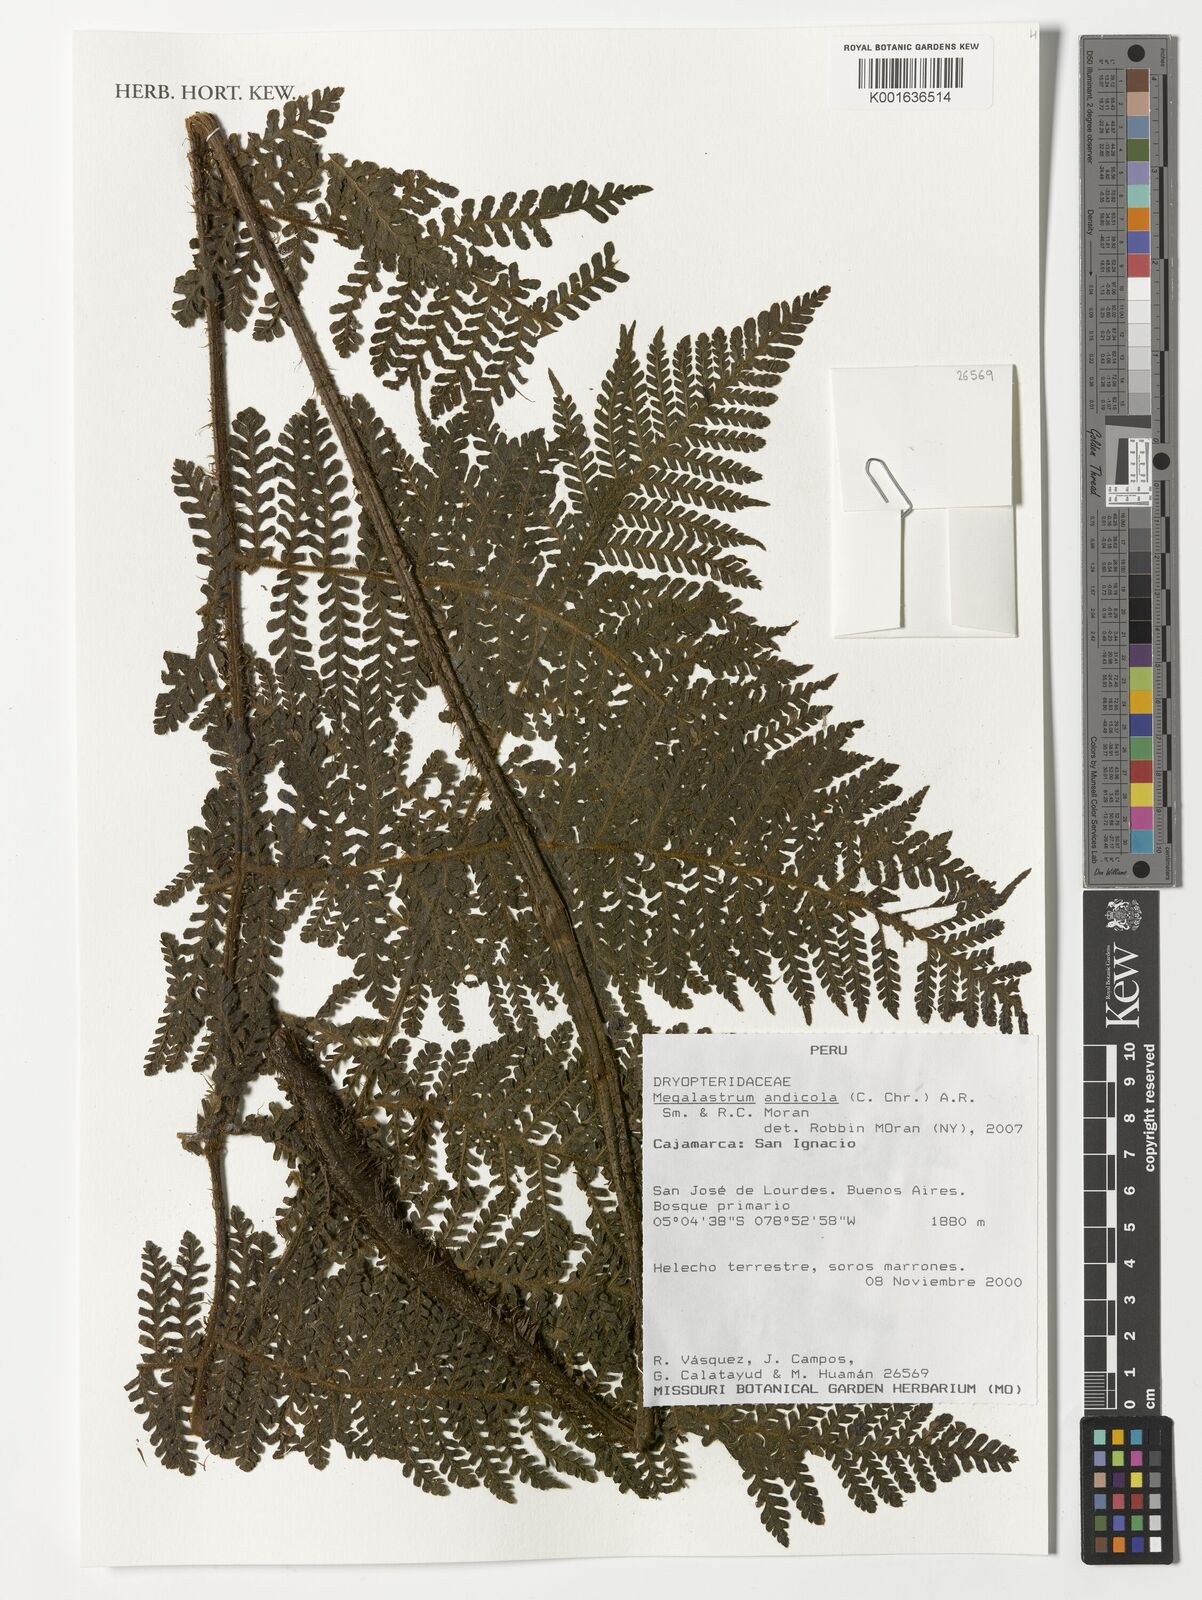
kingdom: Plantae
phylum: Tracheophyta
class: Polypodiopsida
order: Polypodiales
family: Dryopteridaceae
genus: Megalastrum
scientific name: Megalastrum andicola
